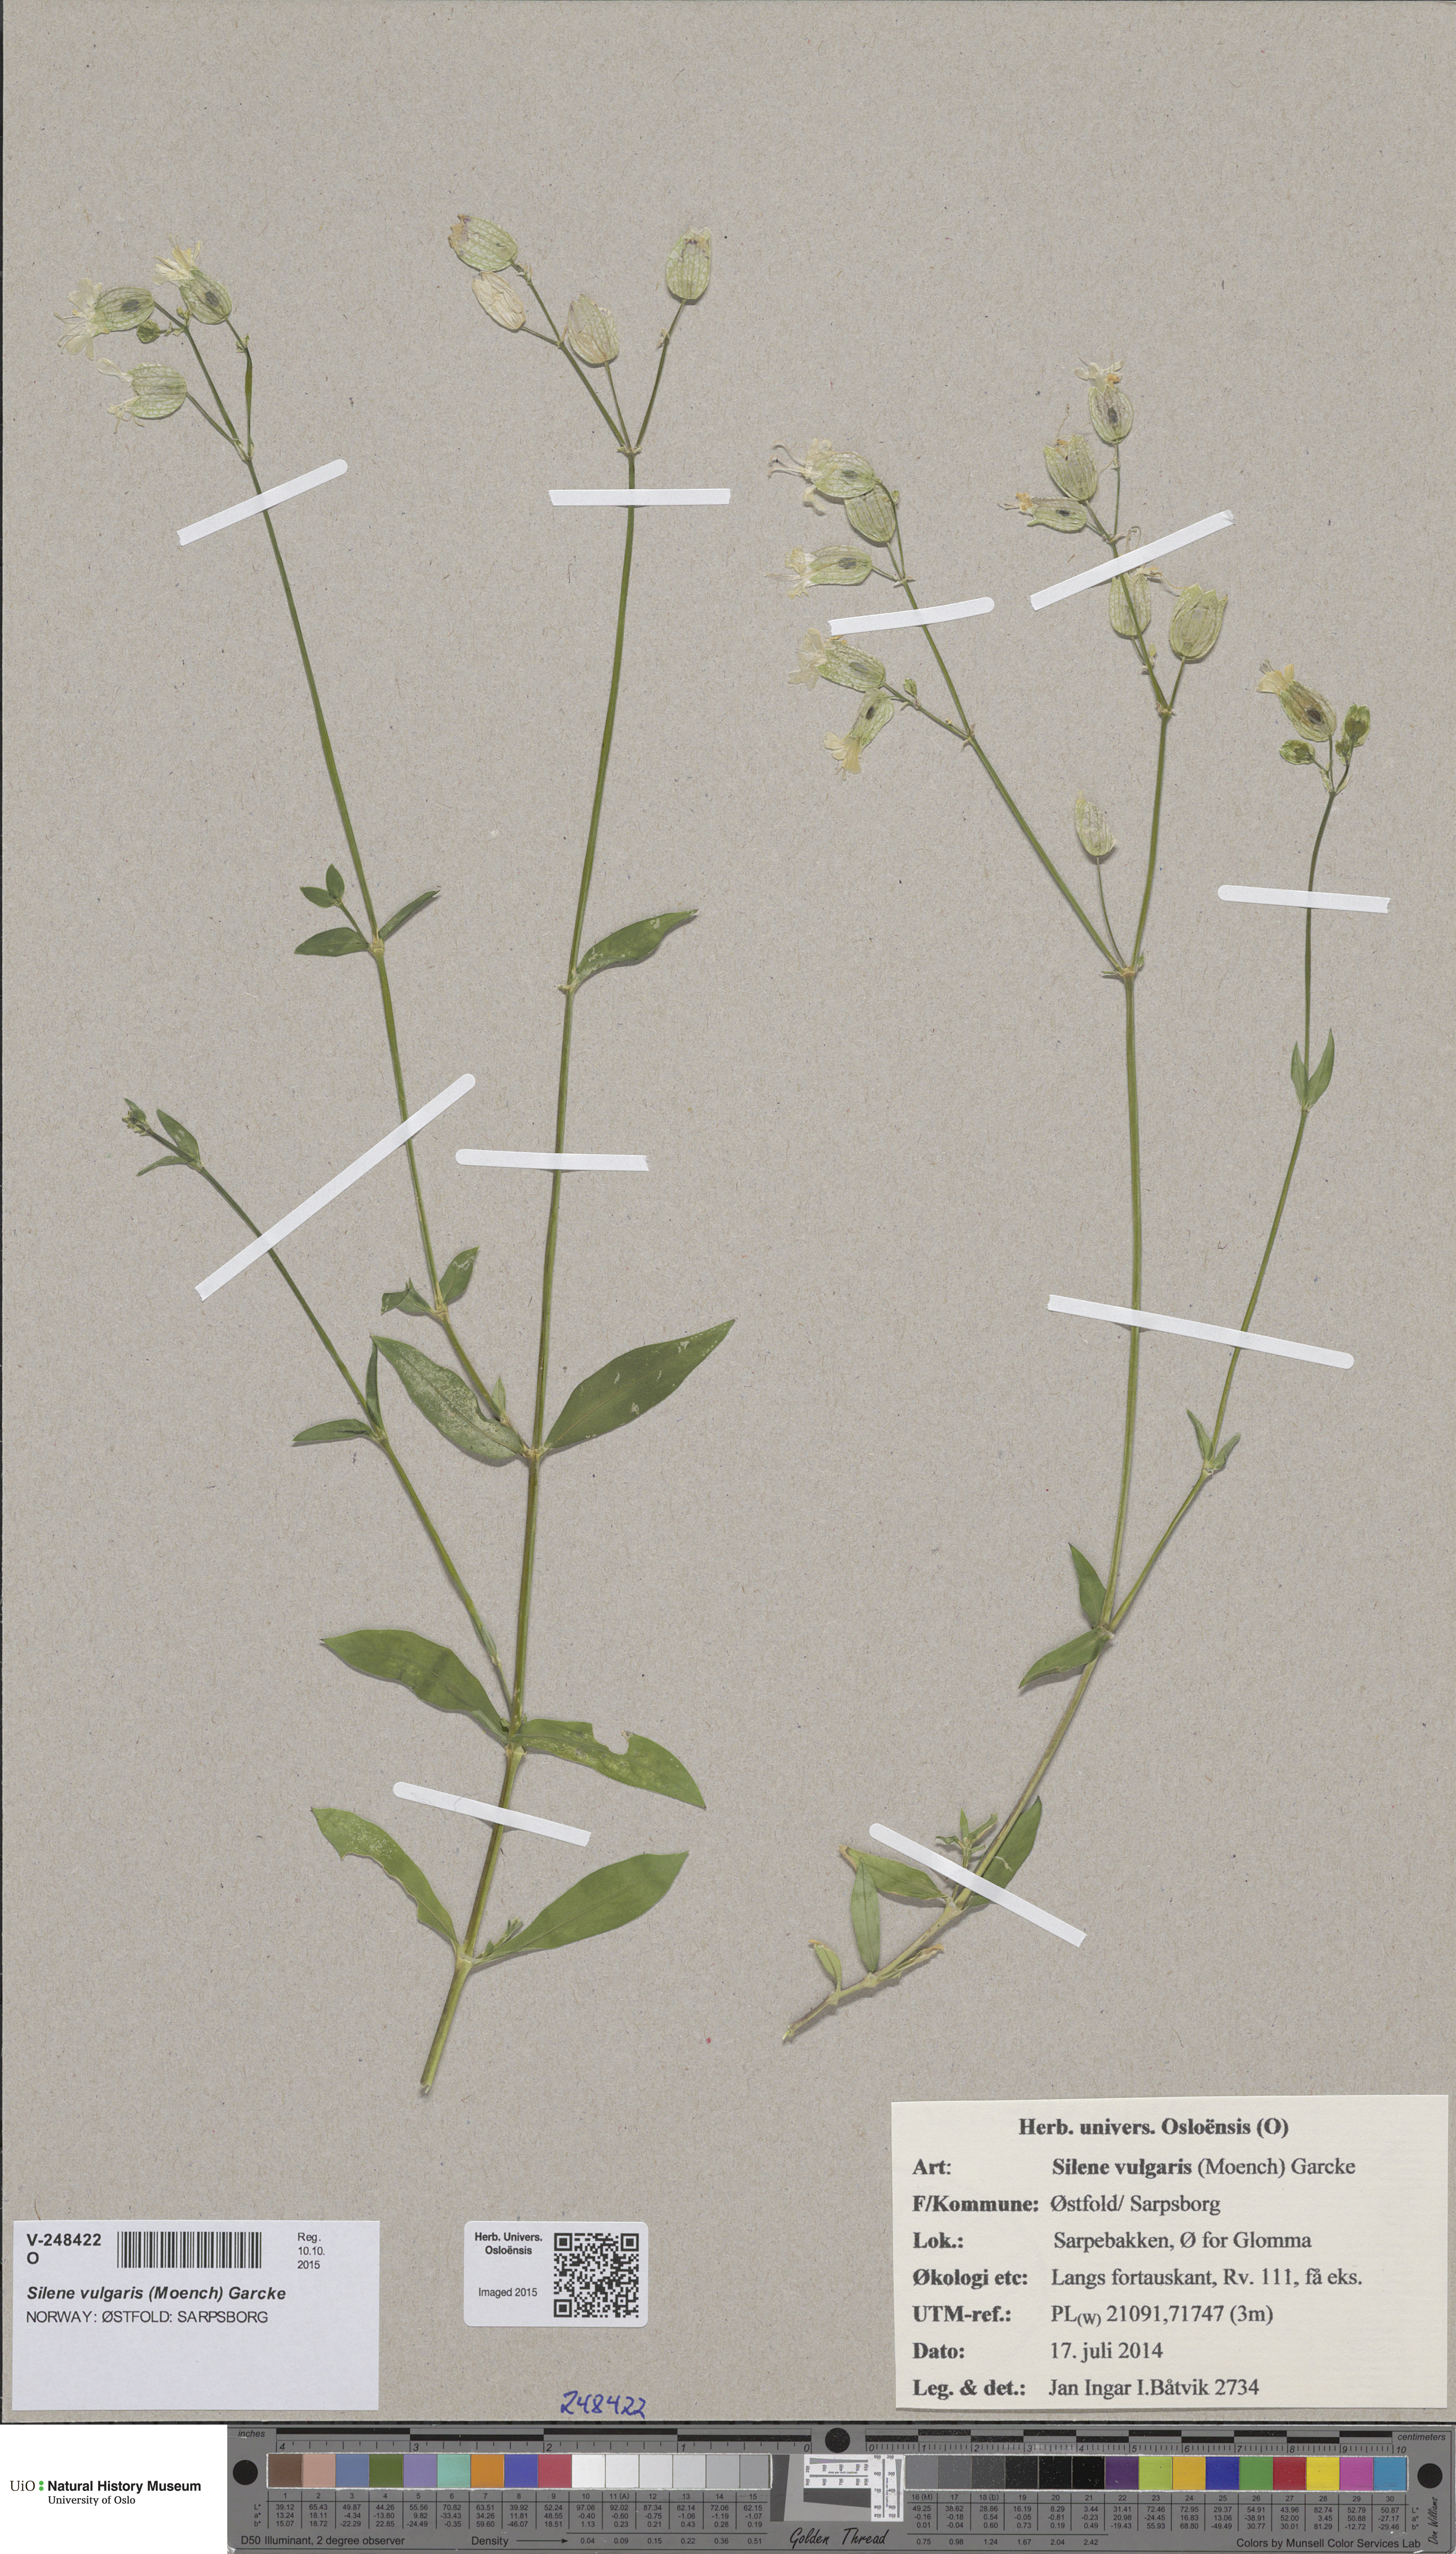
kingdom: Plantae
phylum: Tracheophyta
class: Magnoliopsida
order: Caryophyllales
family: Caryophyllaceae
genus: Silene
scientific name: Silene vulgaris
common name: Bladder campion
